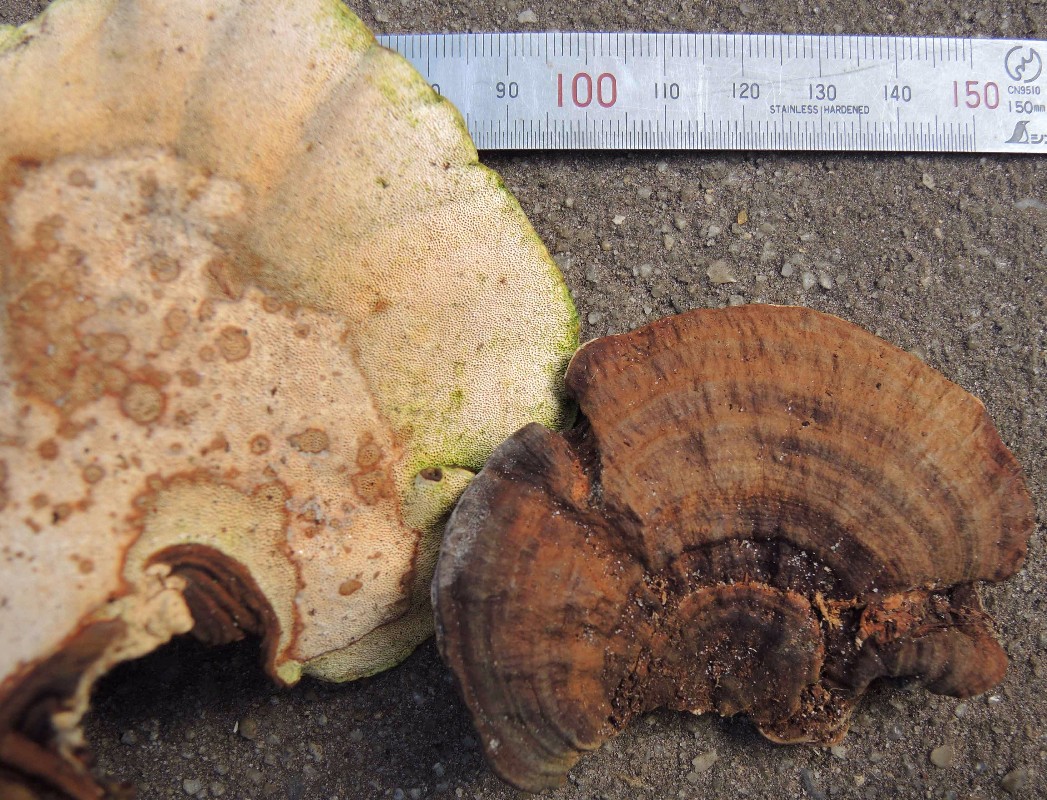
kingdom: Fungi
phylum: Basidiomycota
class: Agaricomycetes
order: Russulales
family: Bondarzewiaceae
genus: Heterobasidion
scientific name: Heterobasidion parviporum
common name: småporet rodfordærver
